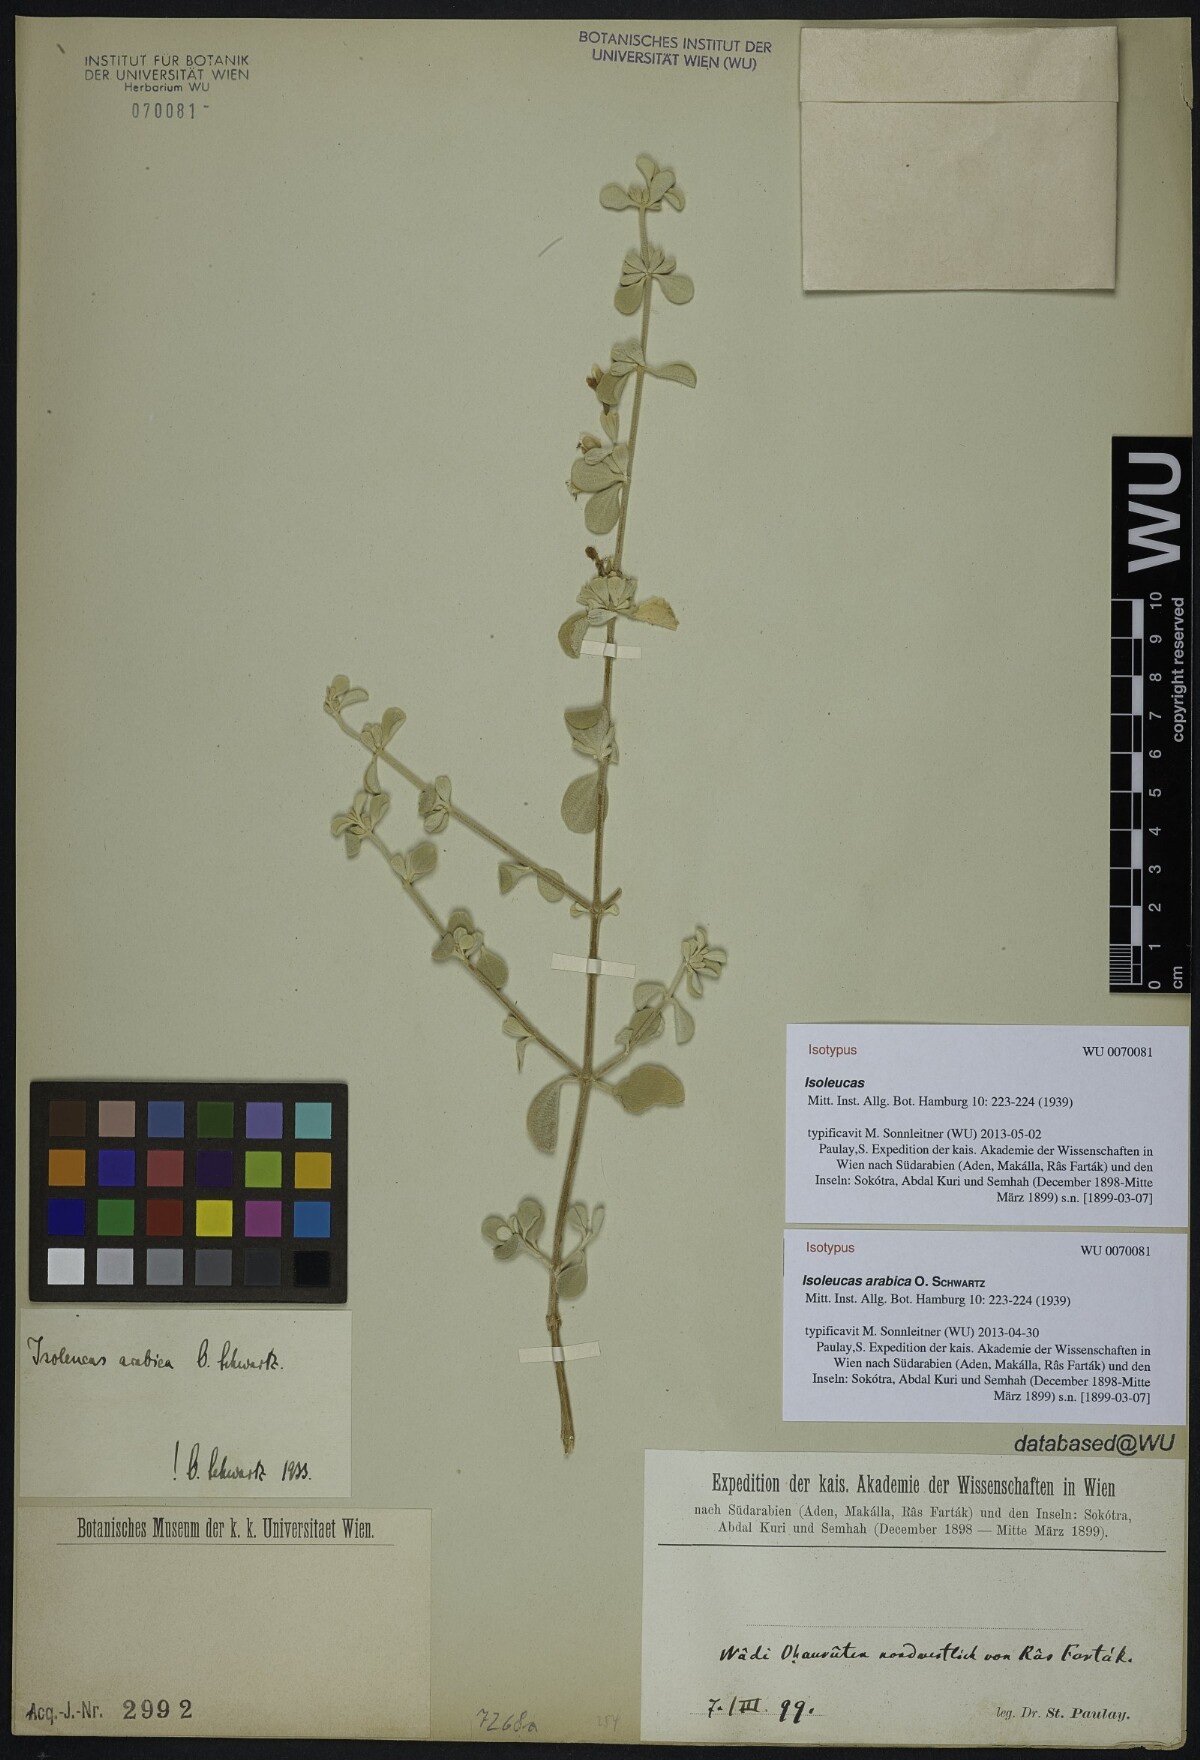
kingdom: Plantae
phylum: Tracheophyta
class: Magnoliopsida
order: Lamiales
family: Lamiaceae
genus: Isoleucas
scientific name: Isoleucas arabica
